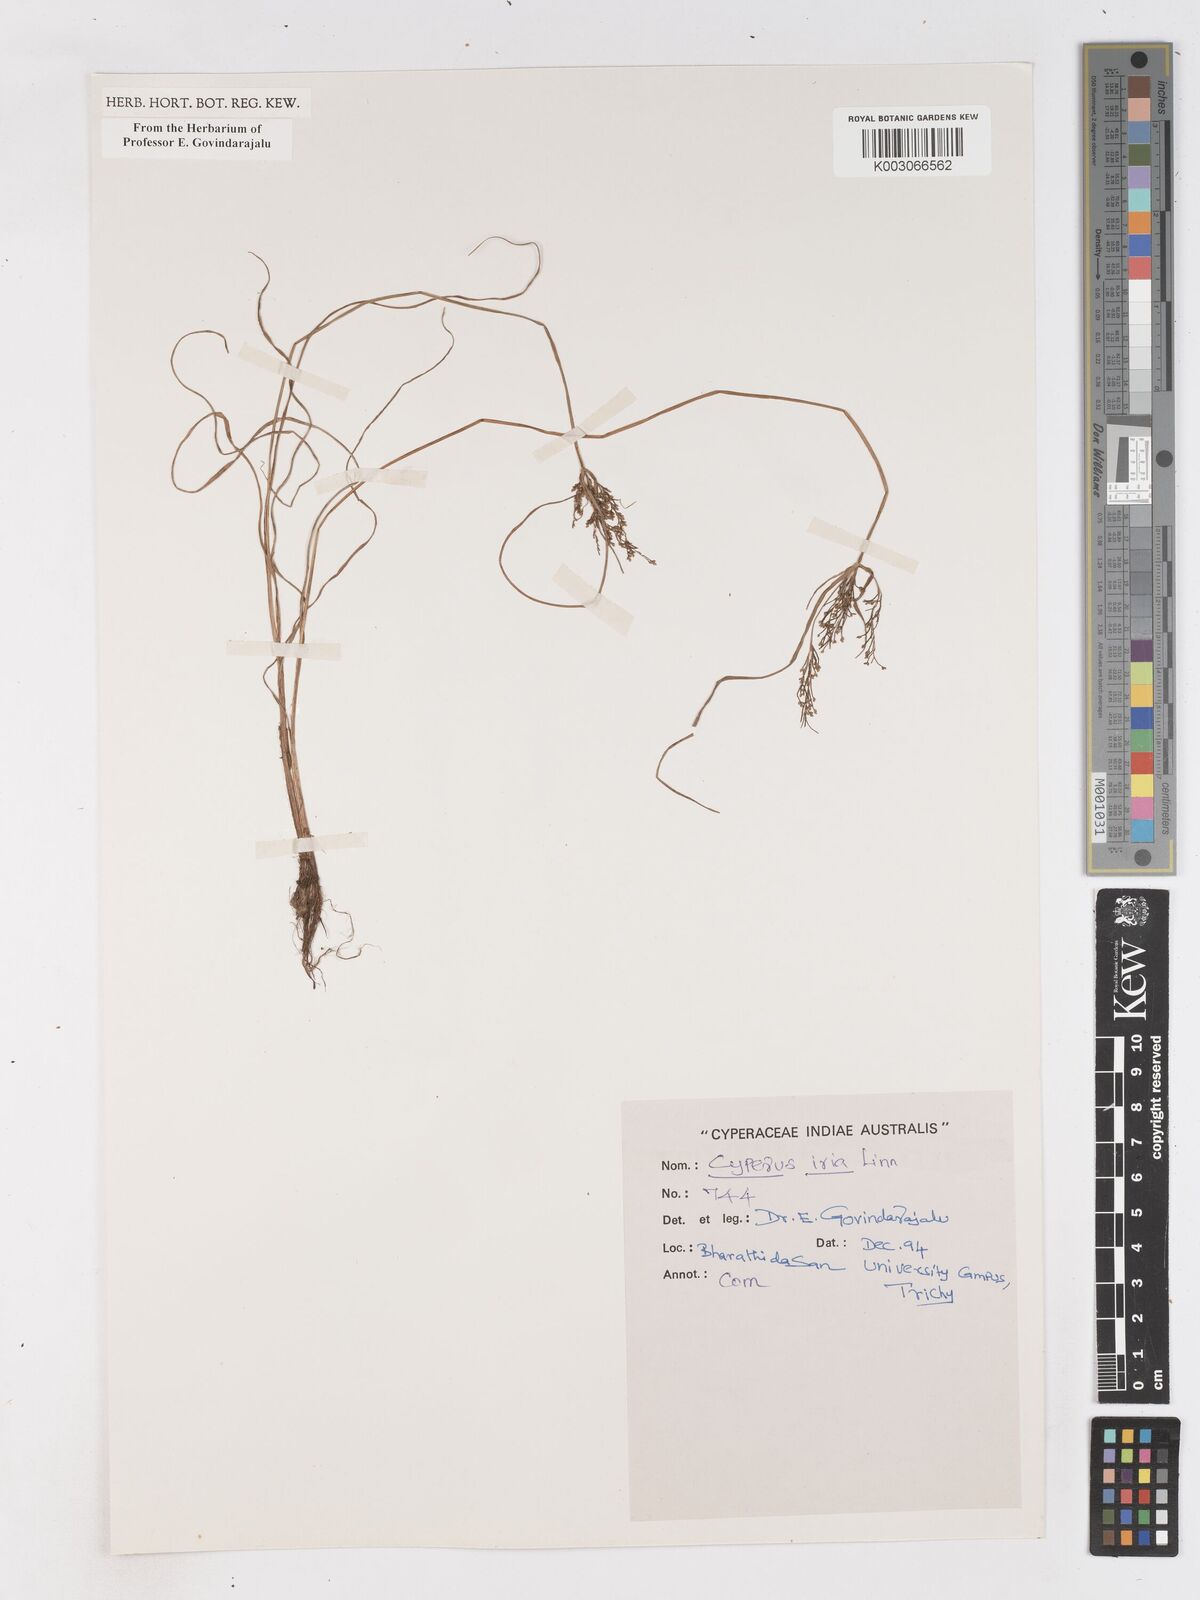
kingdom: Plantae
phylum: Tracheophyta
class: Liliopsida
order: Poales
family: Cyperaceae
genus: Cyperus
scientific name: Cyperus iria
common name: Ricefield flatsedge
